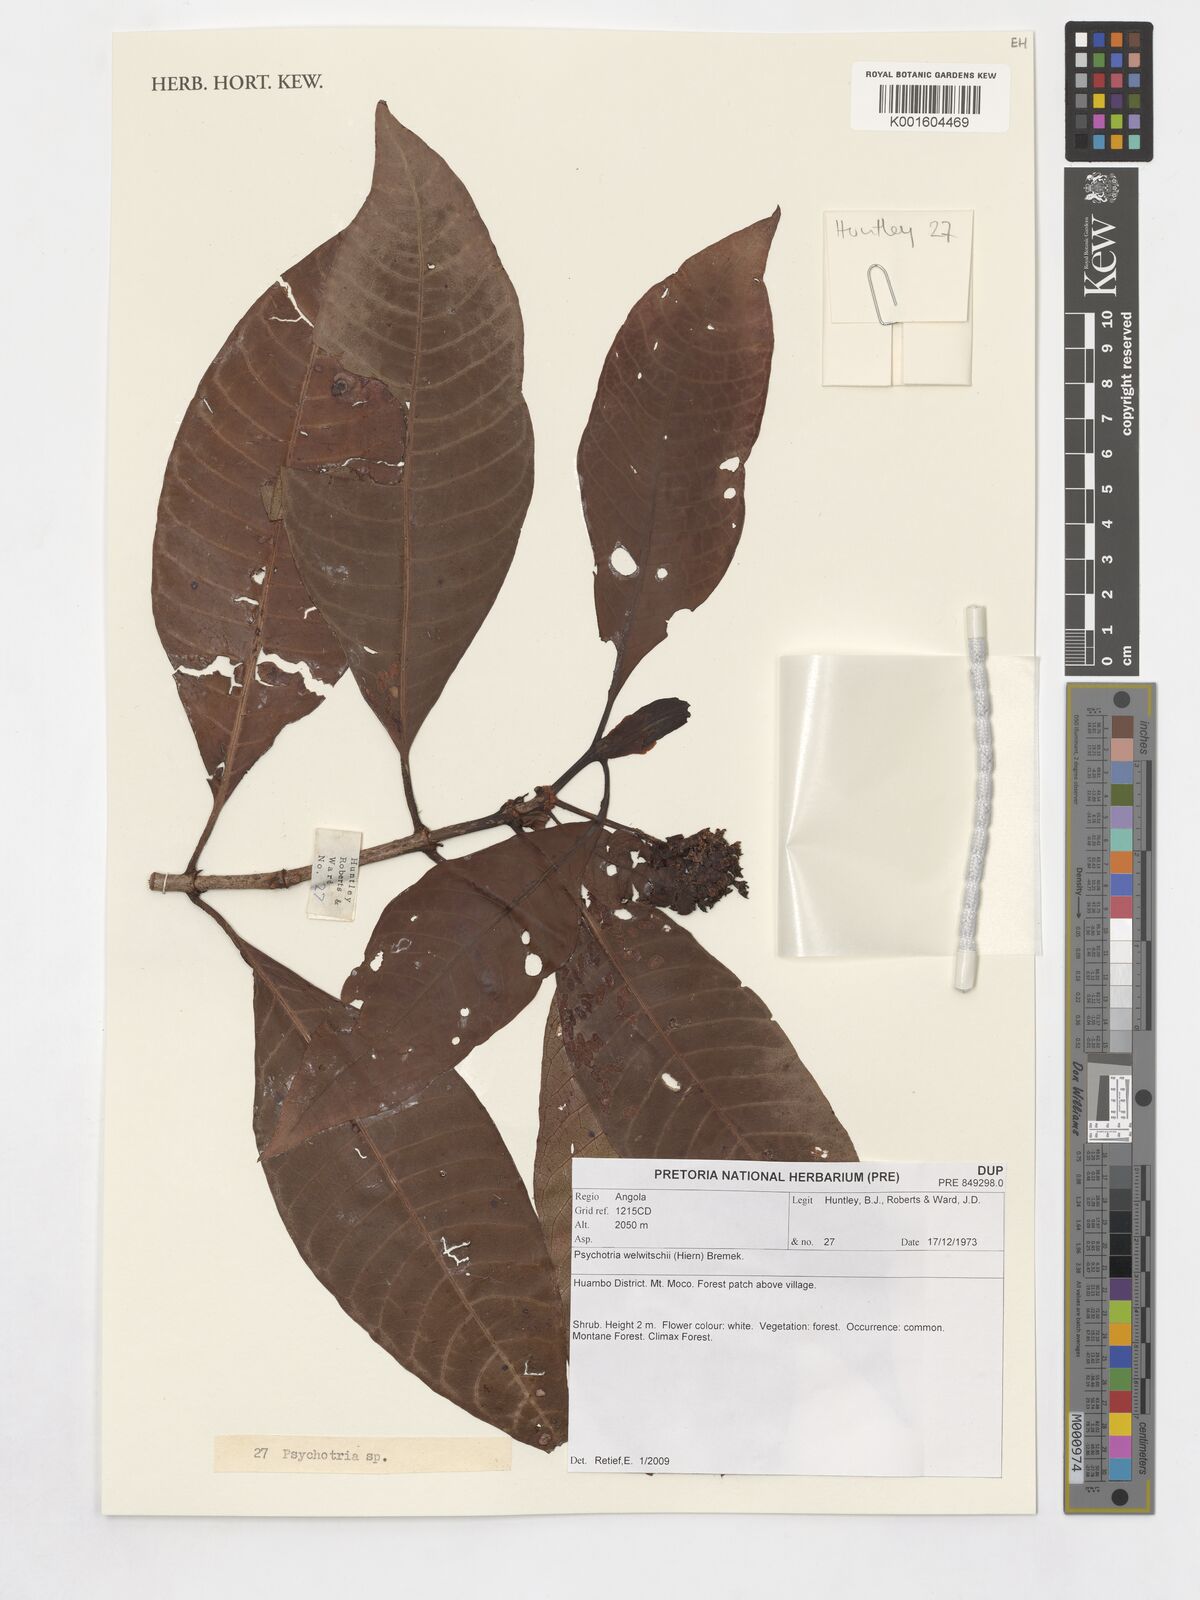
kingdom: Plantae
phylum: Tracheophyta
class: Magnoliopsida
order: Gentianales
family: Rubiaceae
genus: Psychotria
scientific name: Psychotria welwitschii
